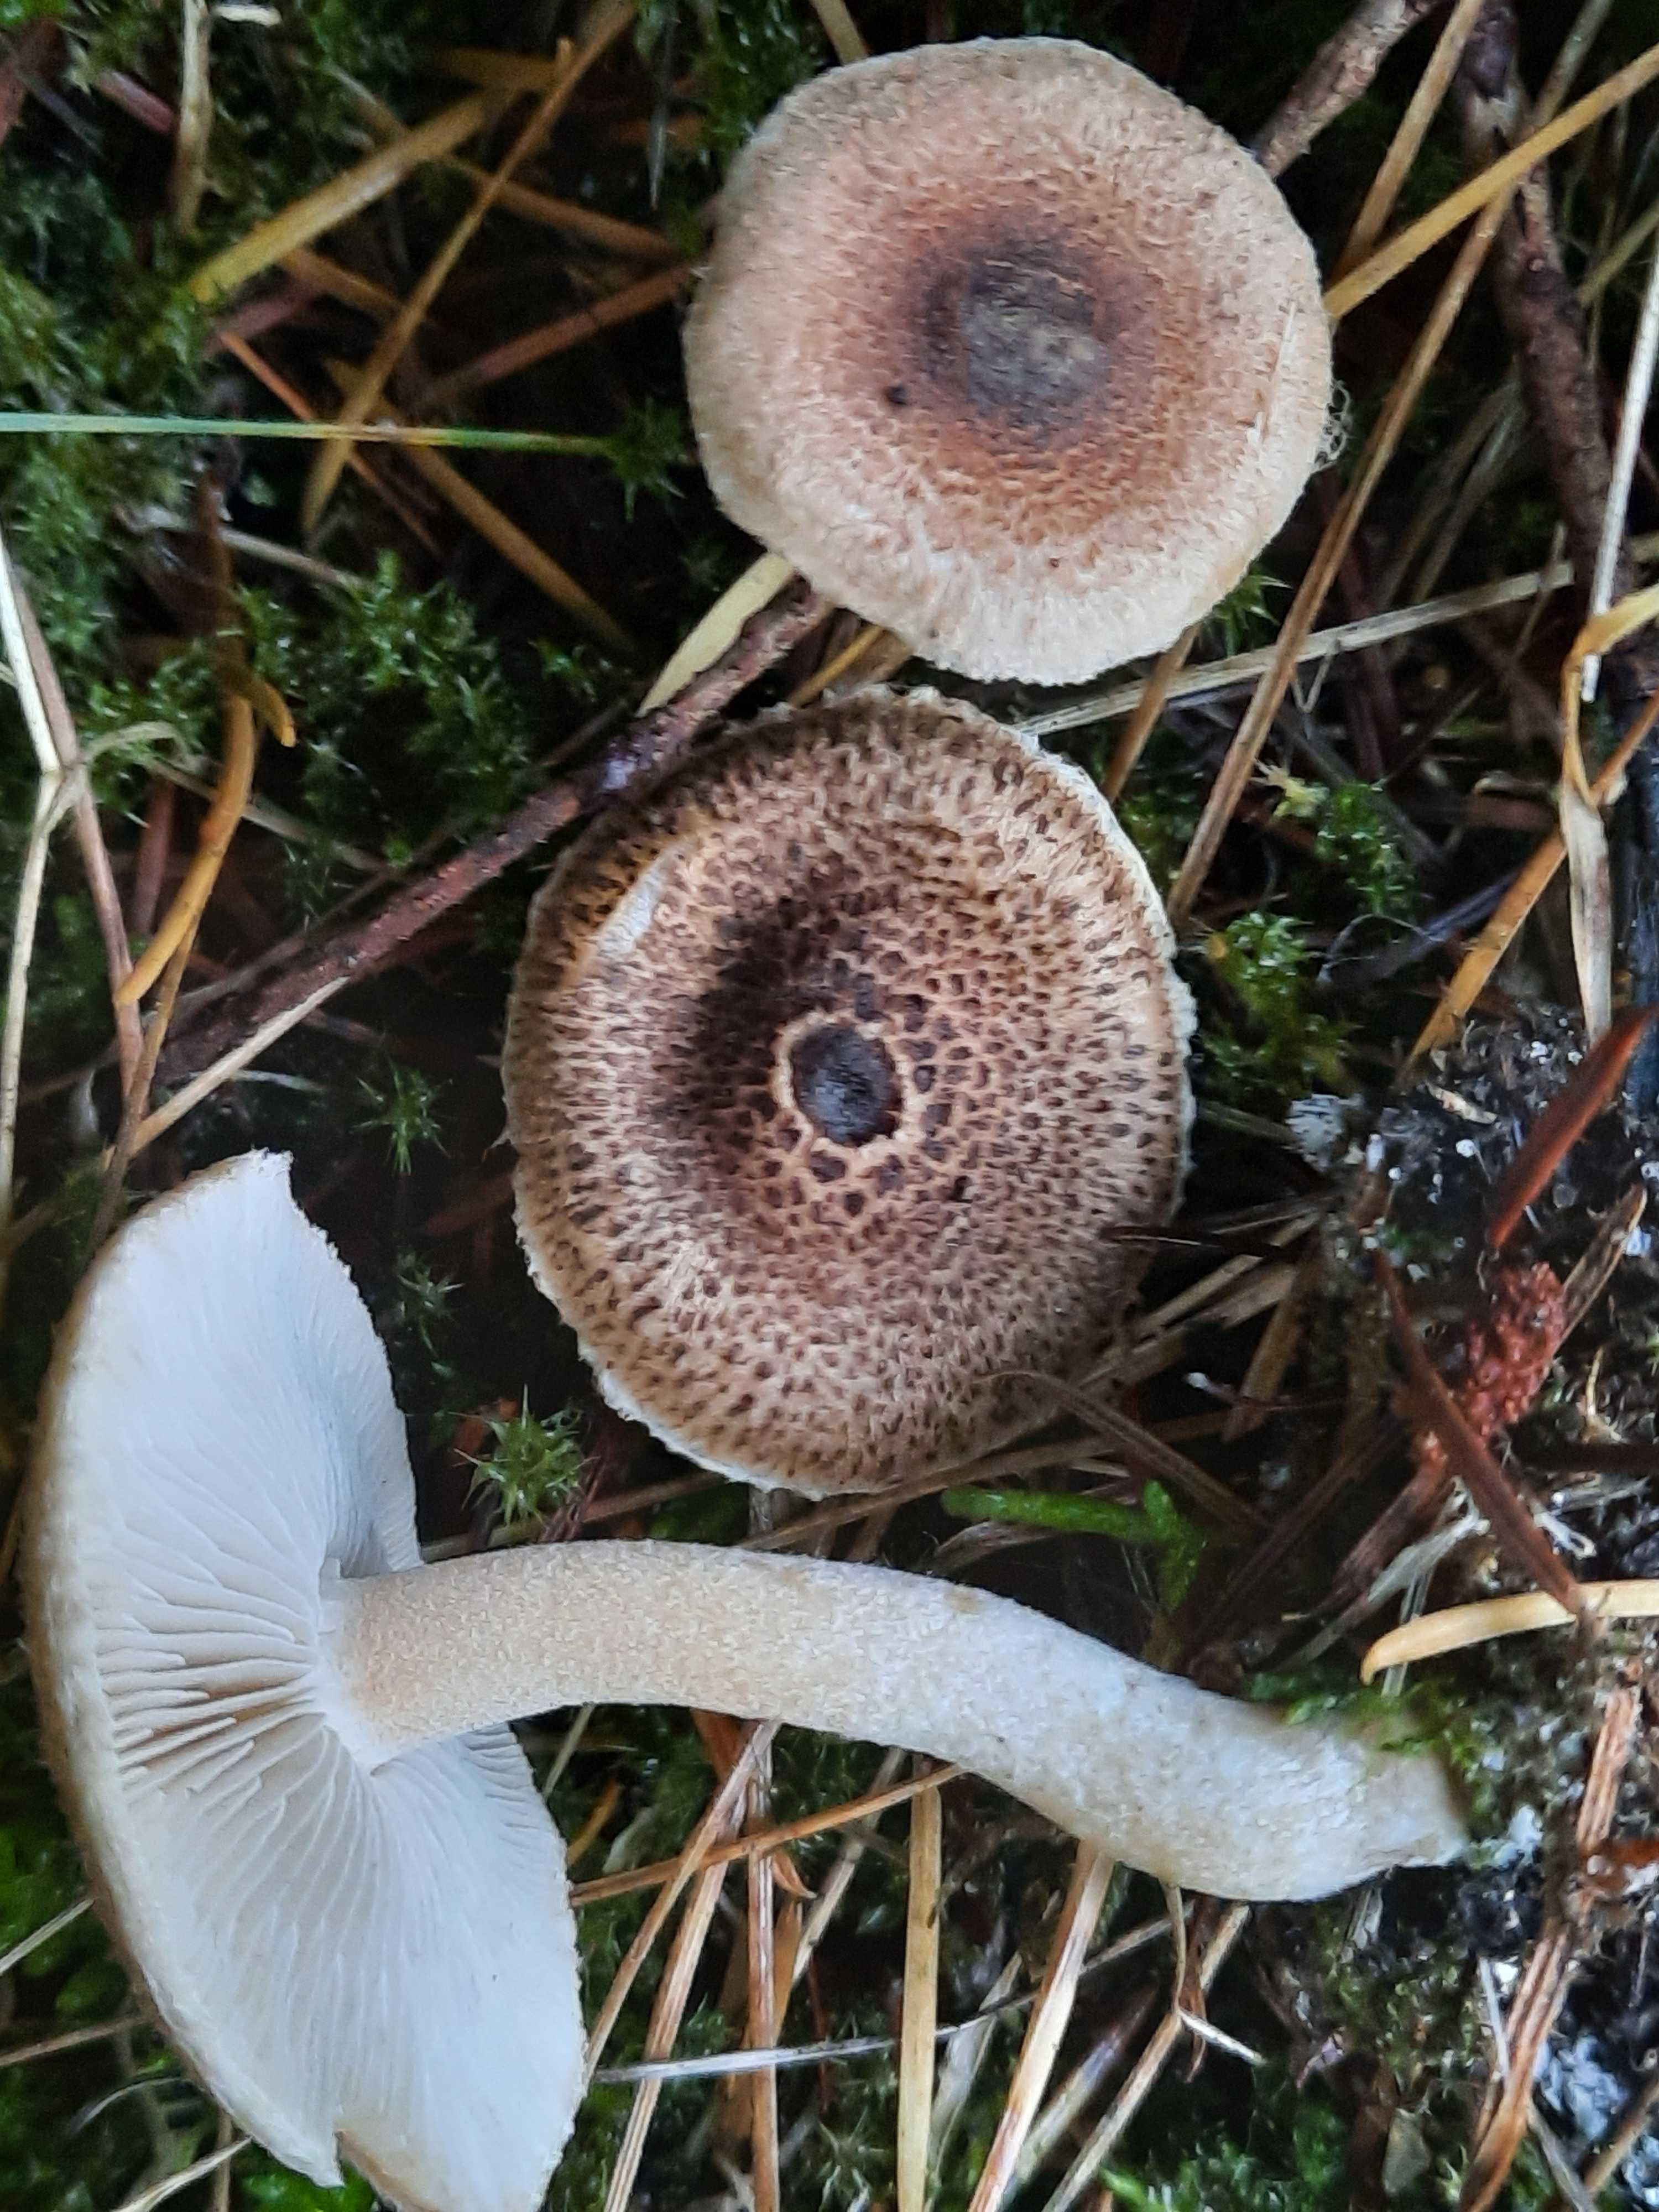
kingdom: Fungi
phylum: Basidiomycota
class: Agaricomycetes
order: Agaricales
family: Inocybaceae
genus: Inocybe
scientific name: Inocybe
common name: trævlhat
